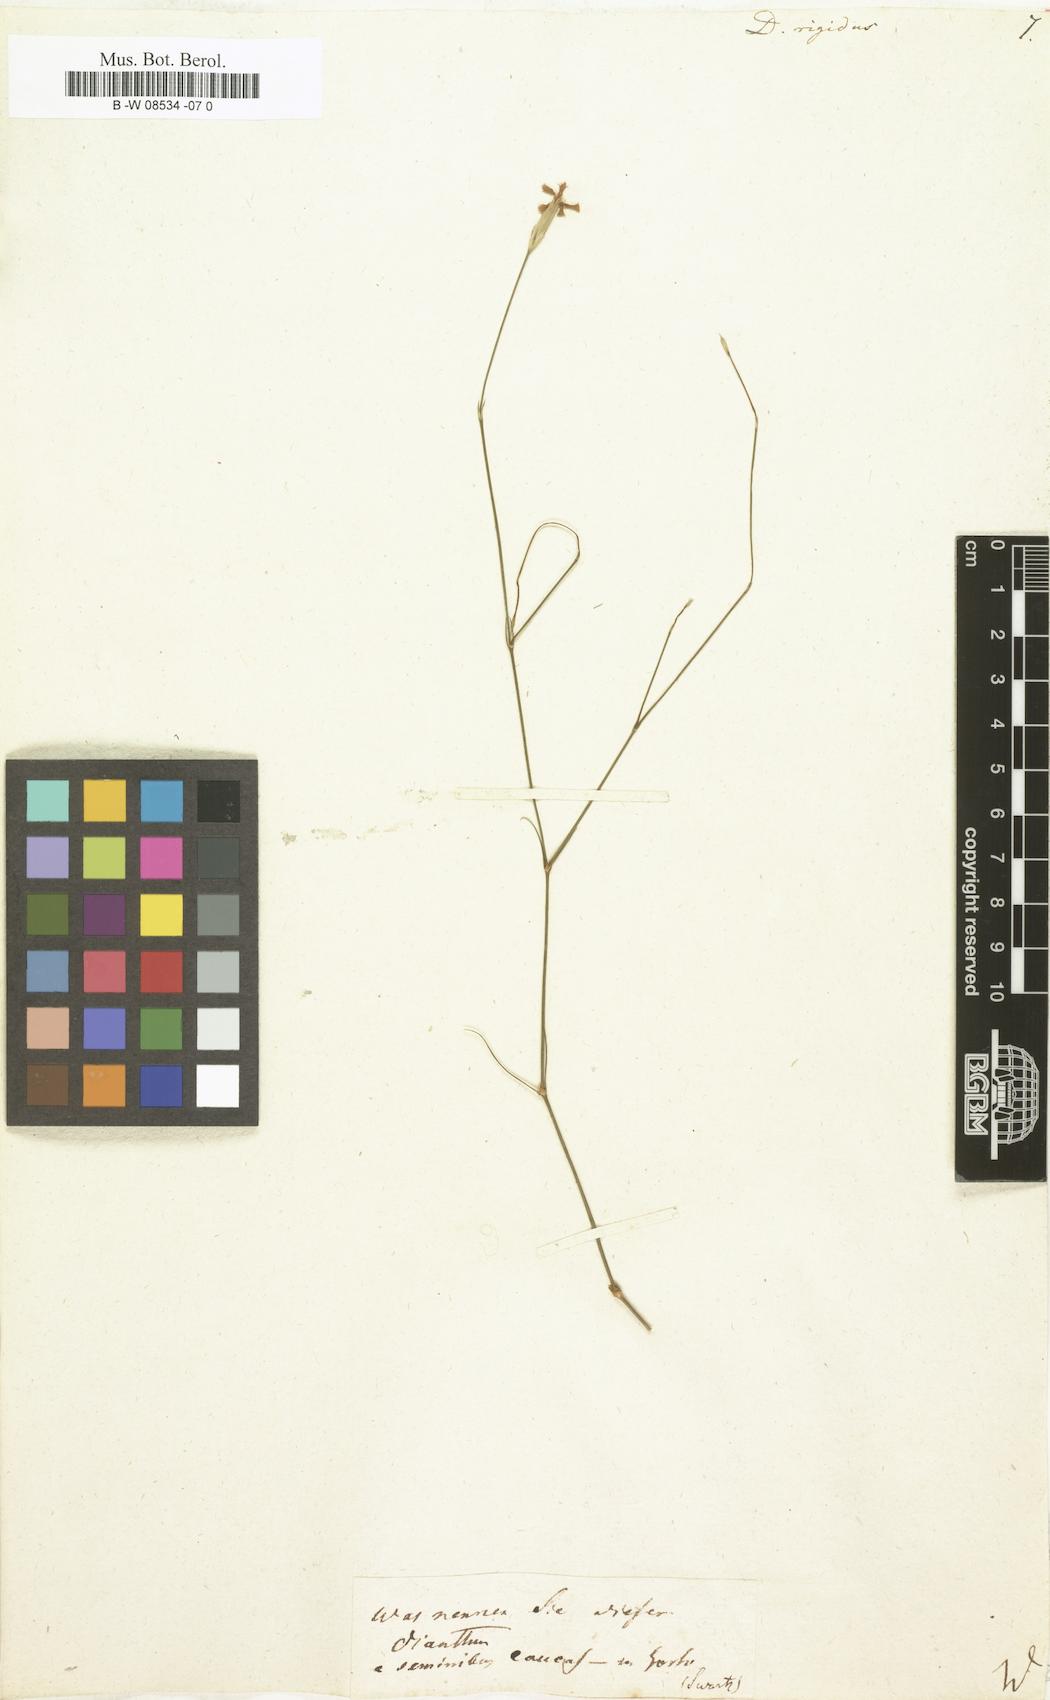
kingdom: Plantae
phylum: Tracheophyta
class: Magnoliopsida
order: Caryophyllales
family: Caryophyllaceae
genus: Dianthus
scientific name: Dianthus rigidus
